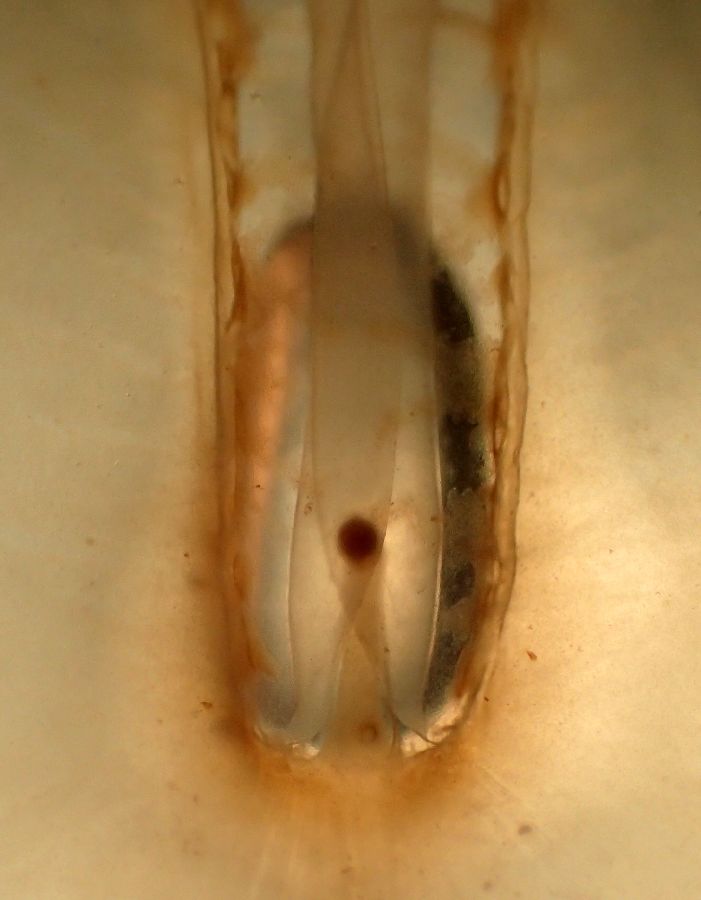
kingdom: Animalia
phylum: Cnidaria
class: Scyphozoa
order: Semaeostomeae
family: Cyaneidae
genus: Cyanea
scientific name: Cyanea tzetlinii
